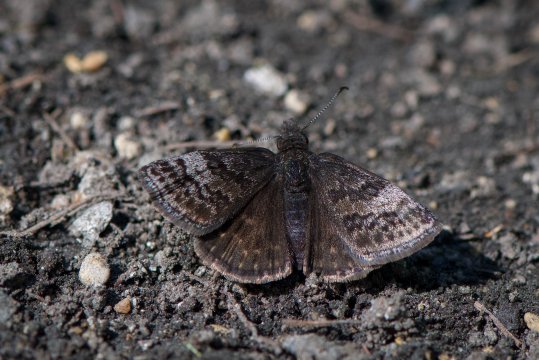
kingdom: Animalia
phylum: Arthropoda
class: Insecta
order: Lepidoptera
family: Hesperiidae
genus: Erynnis
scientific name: Erynnis icelus
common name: Dreamy Duskywing
